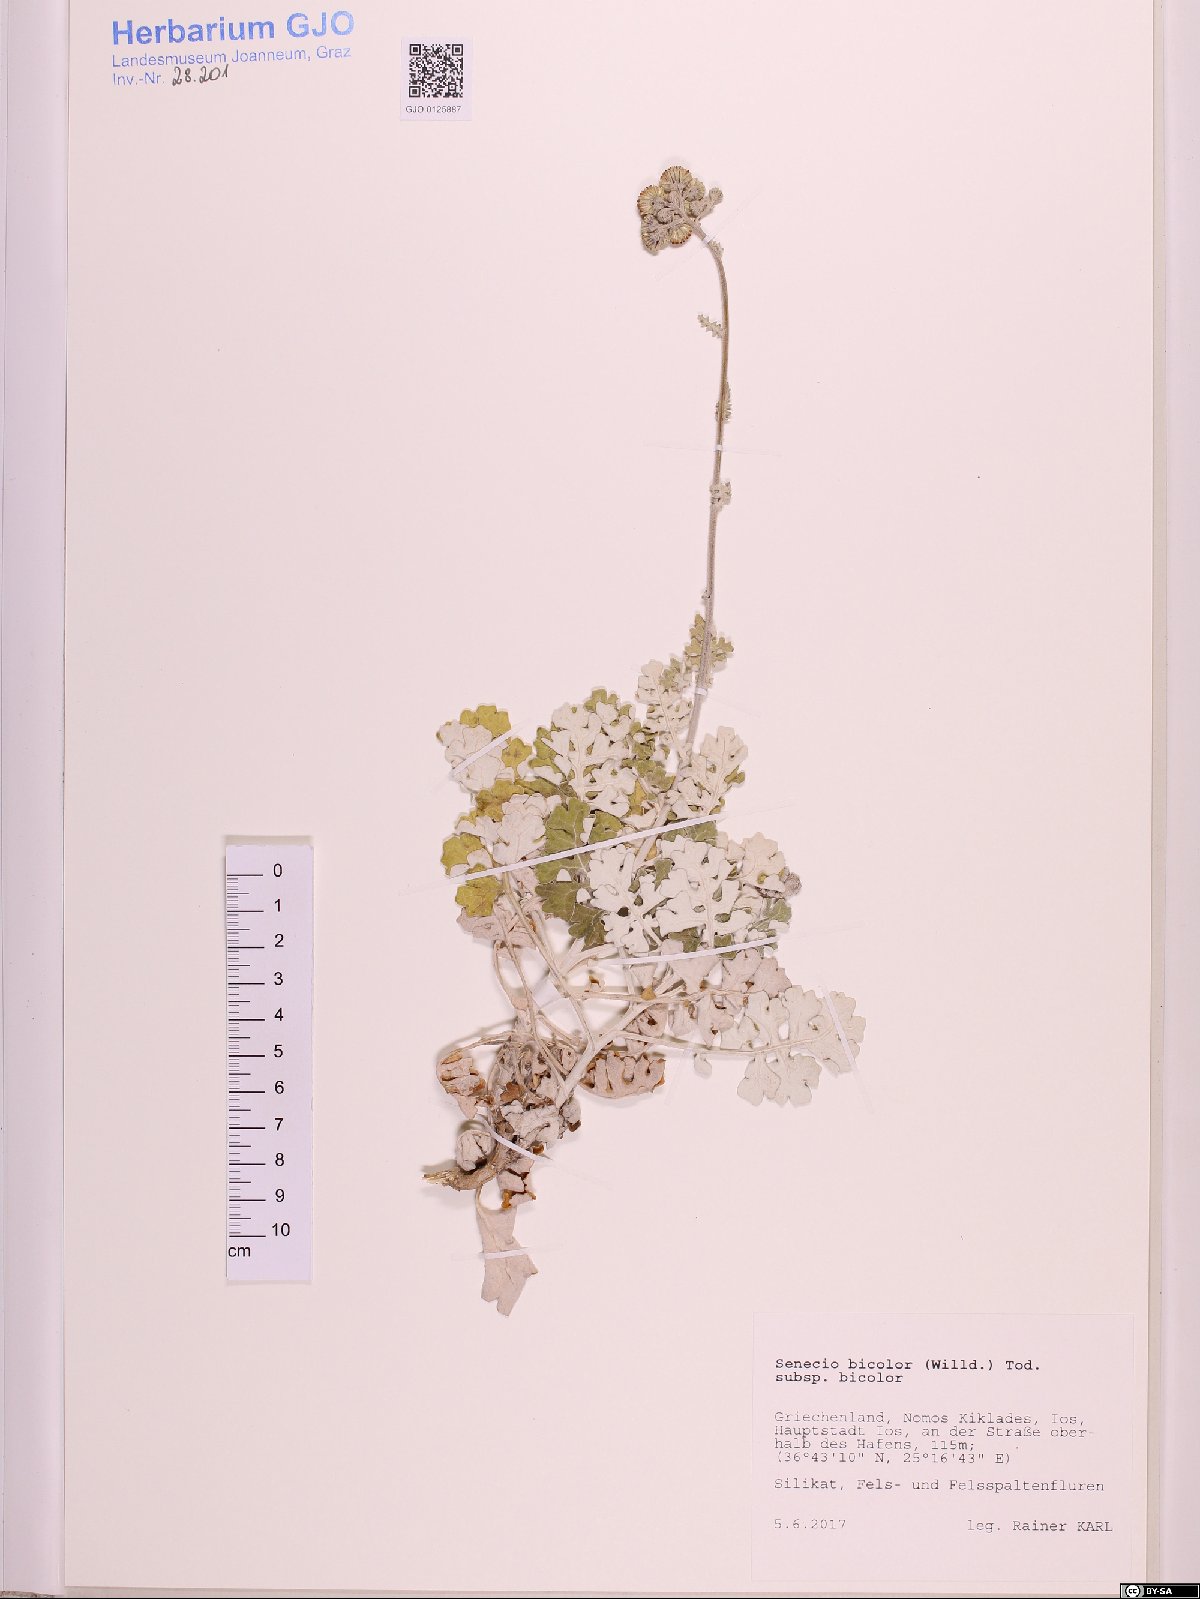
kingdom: Plantae
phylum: Tracheophyta
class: Magnoliopsida
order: Asterales
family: Asteraceae
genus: Senecio
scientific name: Senecio bicolor
